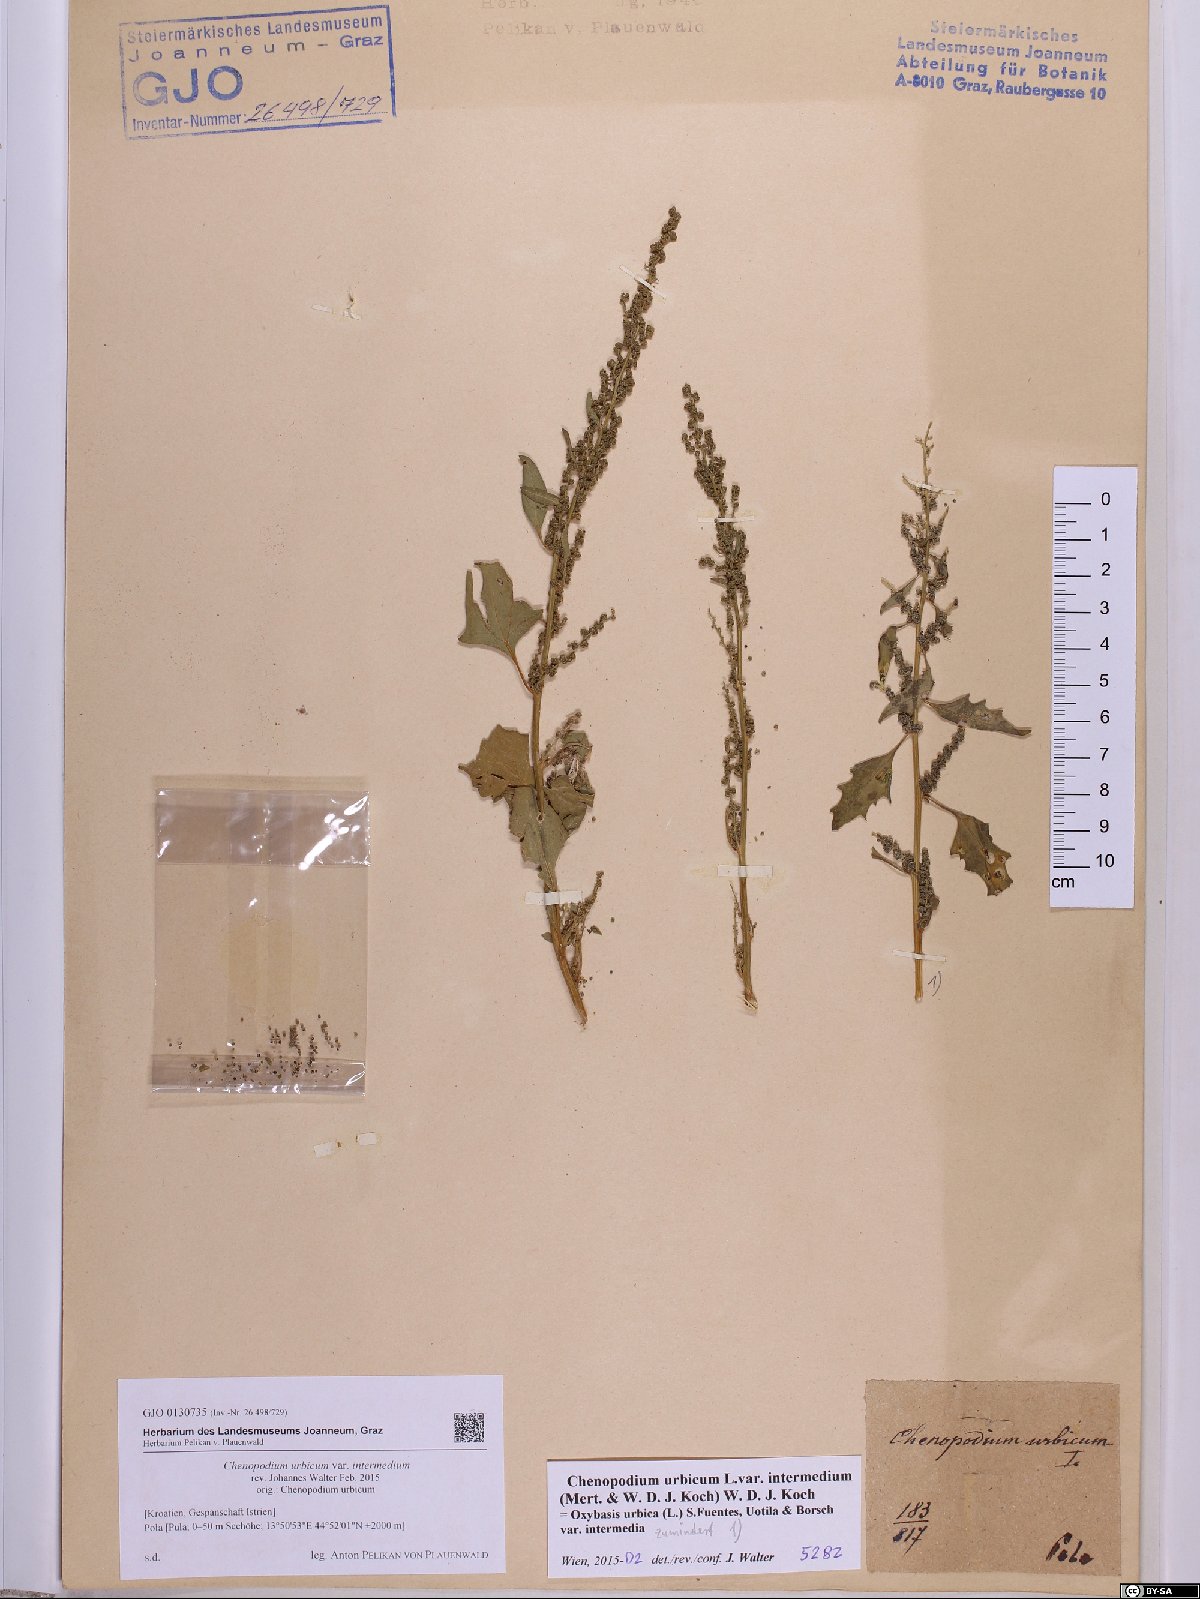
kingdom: Plantae
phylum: Tracheophyta
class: Magnoliopsida
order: Caryophyllales
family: Amaranthaceae
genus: Oxybasis
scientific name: Oxybasis rhombifolia
